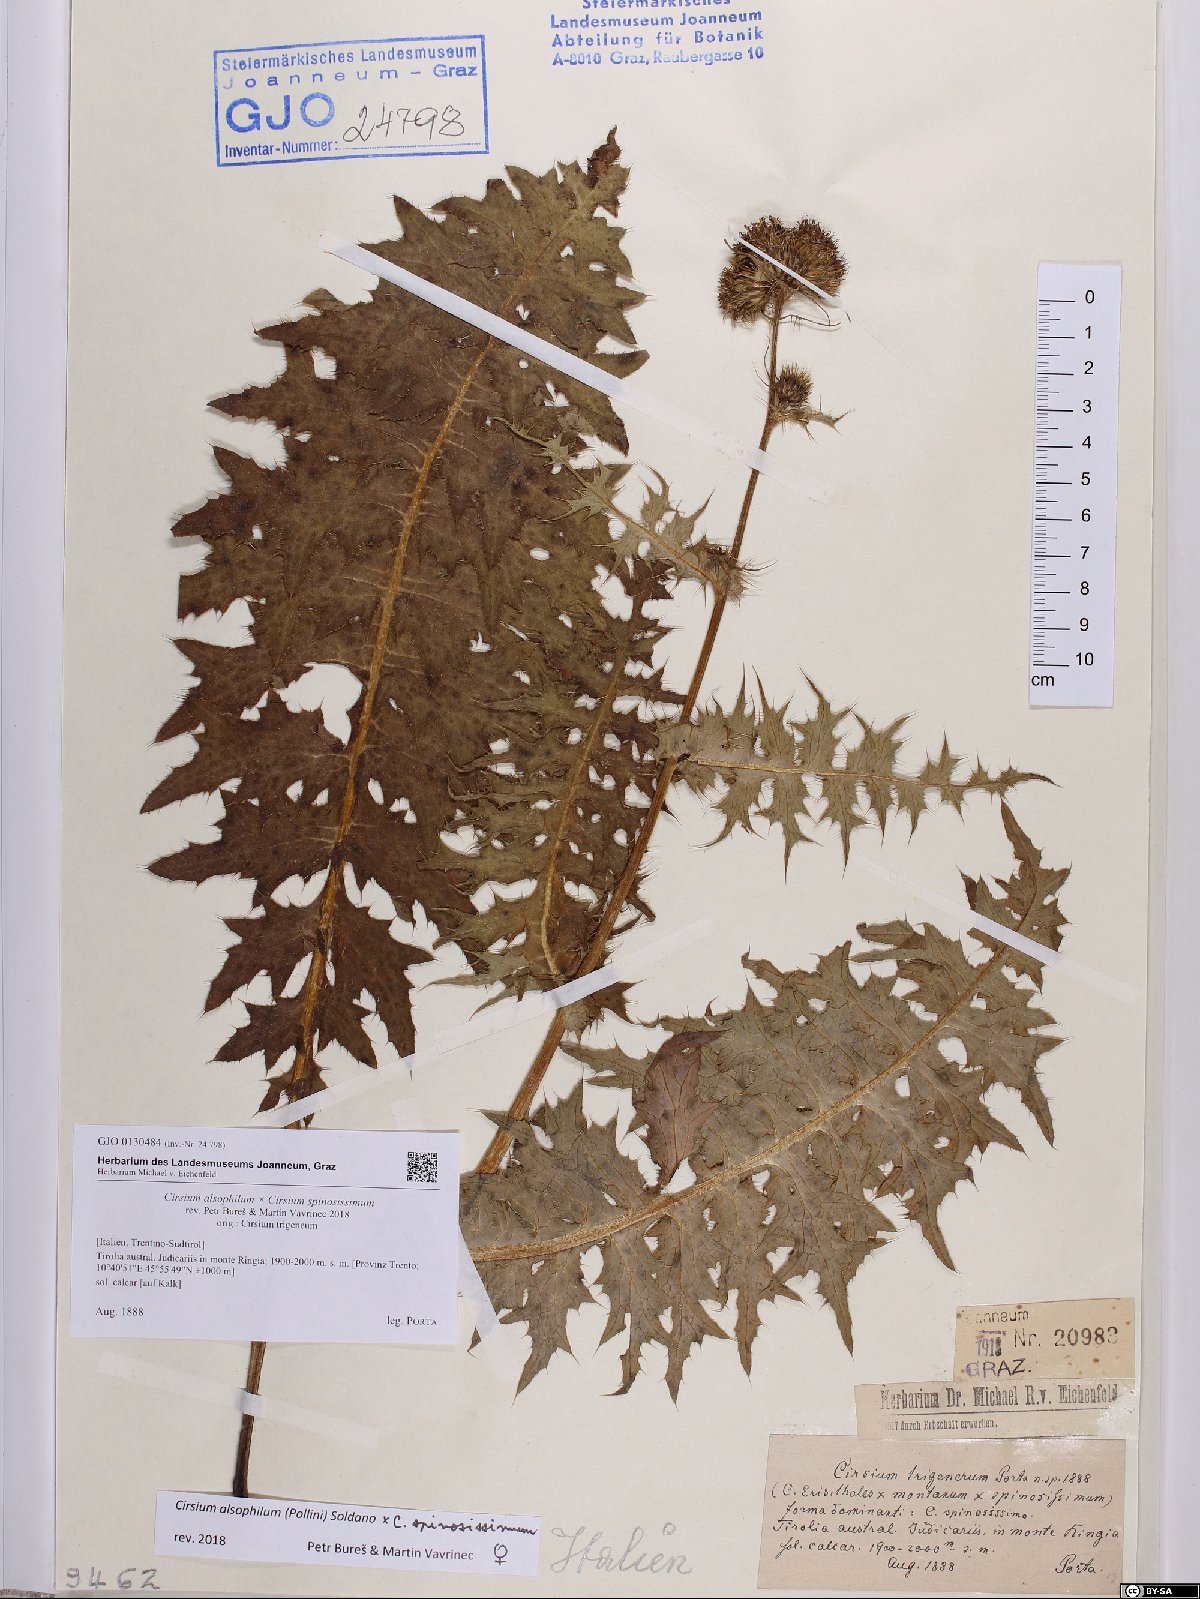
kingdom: Plantae
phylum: Tracheophyta
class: Magnoliopsida
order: Asterales
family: Asteraceae
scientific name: Asteraceae
